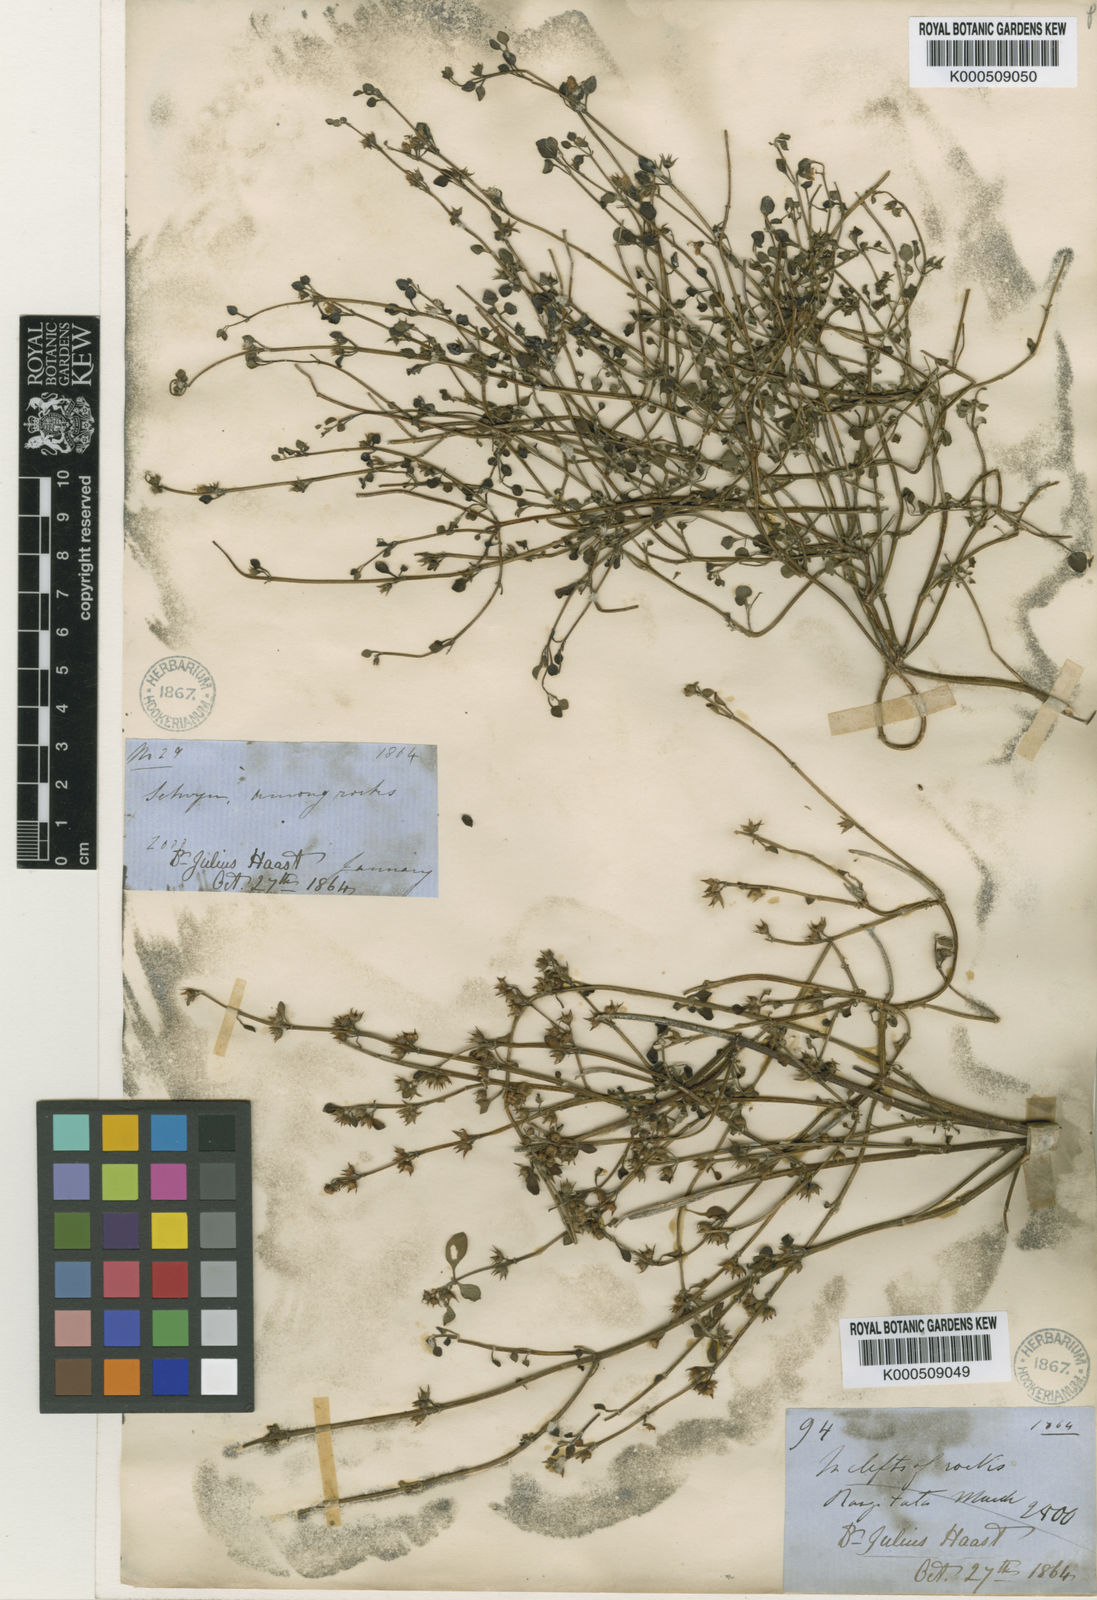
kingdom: Plantae
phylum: Tracheophyta
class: Magnoliopsida
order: Lamiales
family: Lamiaceae
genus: Teucrium
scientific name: Teucrium parvifolium
